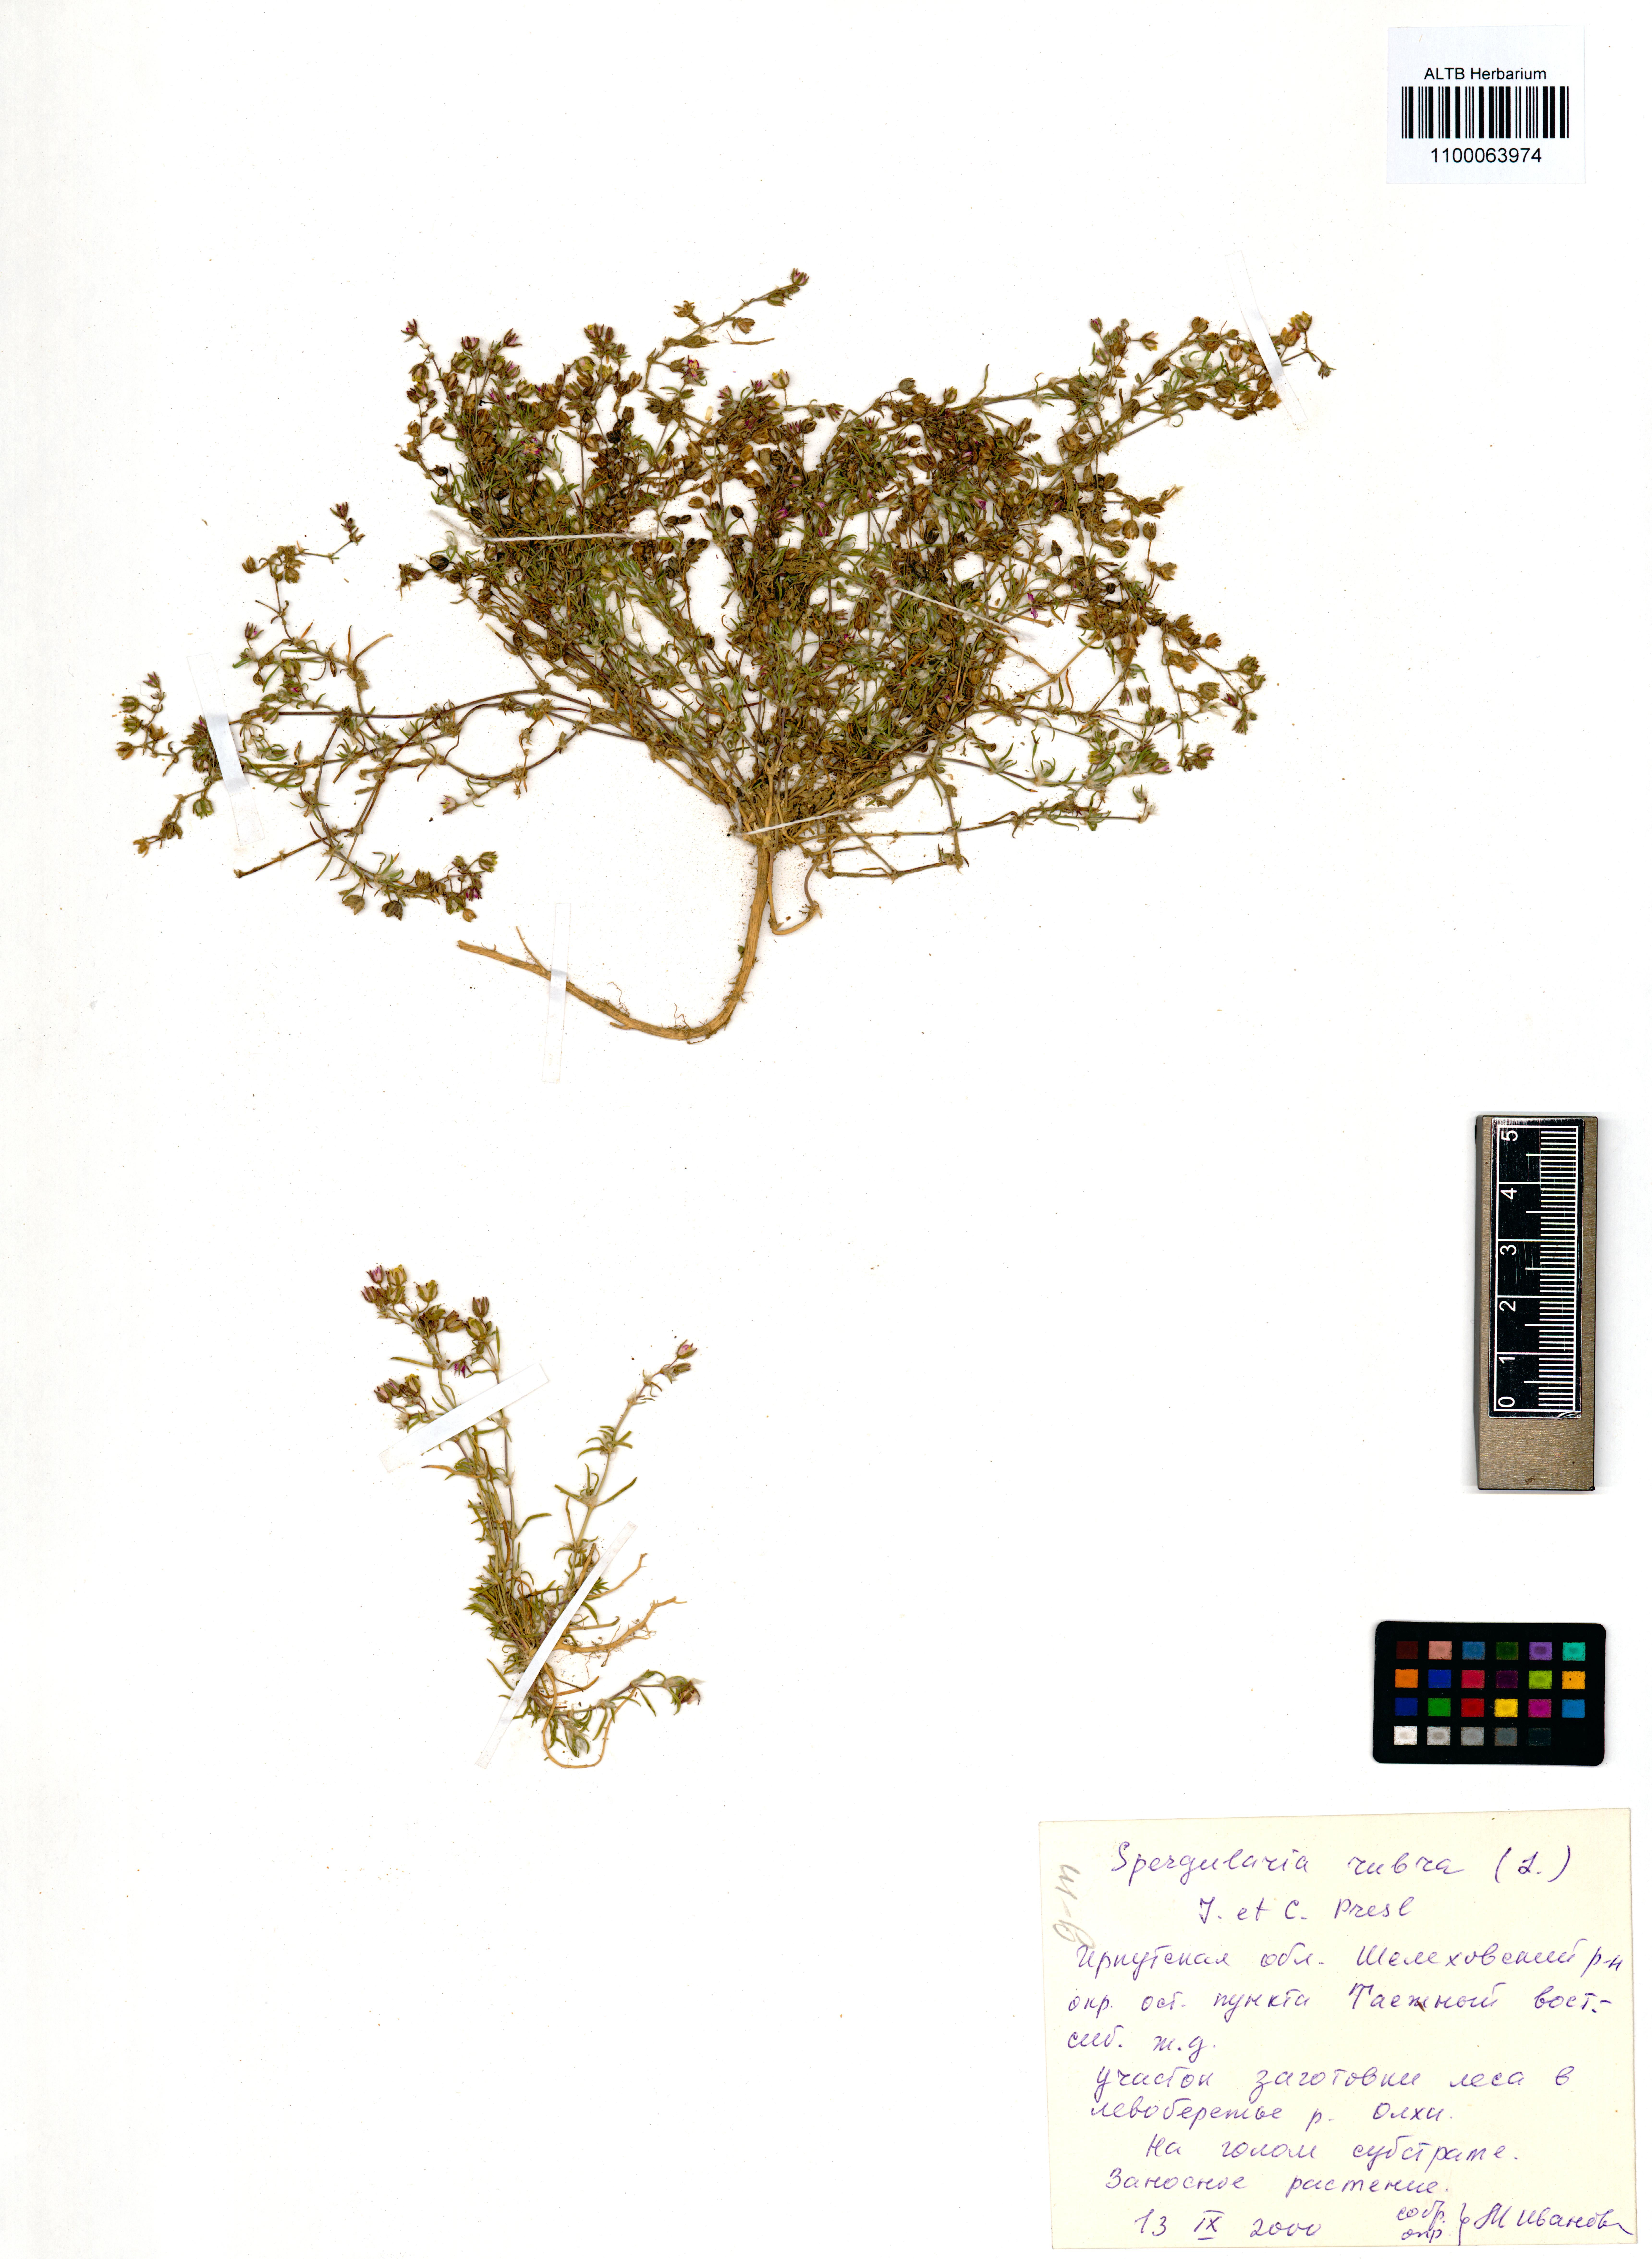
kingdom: Plantae
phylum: Tracheophyta
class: Magnoliopsida
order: Caryophyllales
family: Caryophyllaceae
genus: Spergularia
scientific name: Spergularia rubra
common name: Red sand-spurrey
